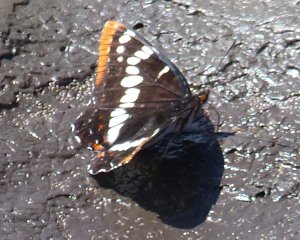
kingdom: Animalia
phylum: Arthropoda
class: Insecta
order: Lepidoptera
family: Nymphalidae
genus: Limenitis
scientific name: Limenitis lorquini
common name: Lorquin's Admiral
